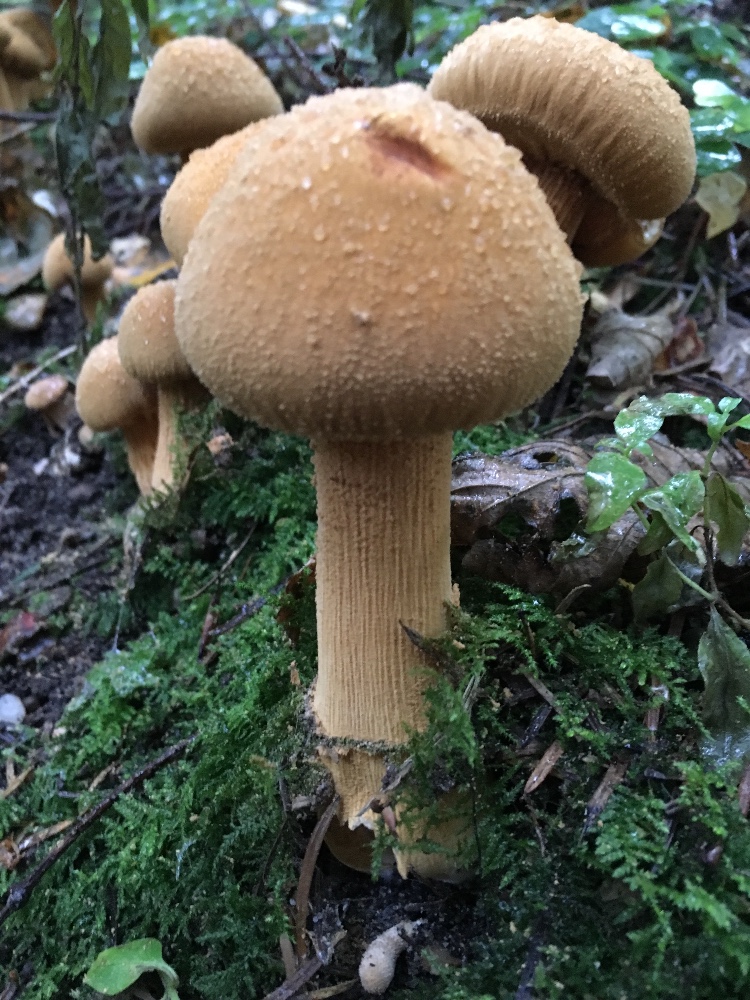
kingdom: Fungi
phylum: Basidiomycota
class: Agaricomycetes
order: Agaricales
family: Tricholomataceae
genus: Phaeolepiota
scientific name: Phaeolepiota aurea
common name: gyldenhat
